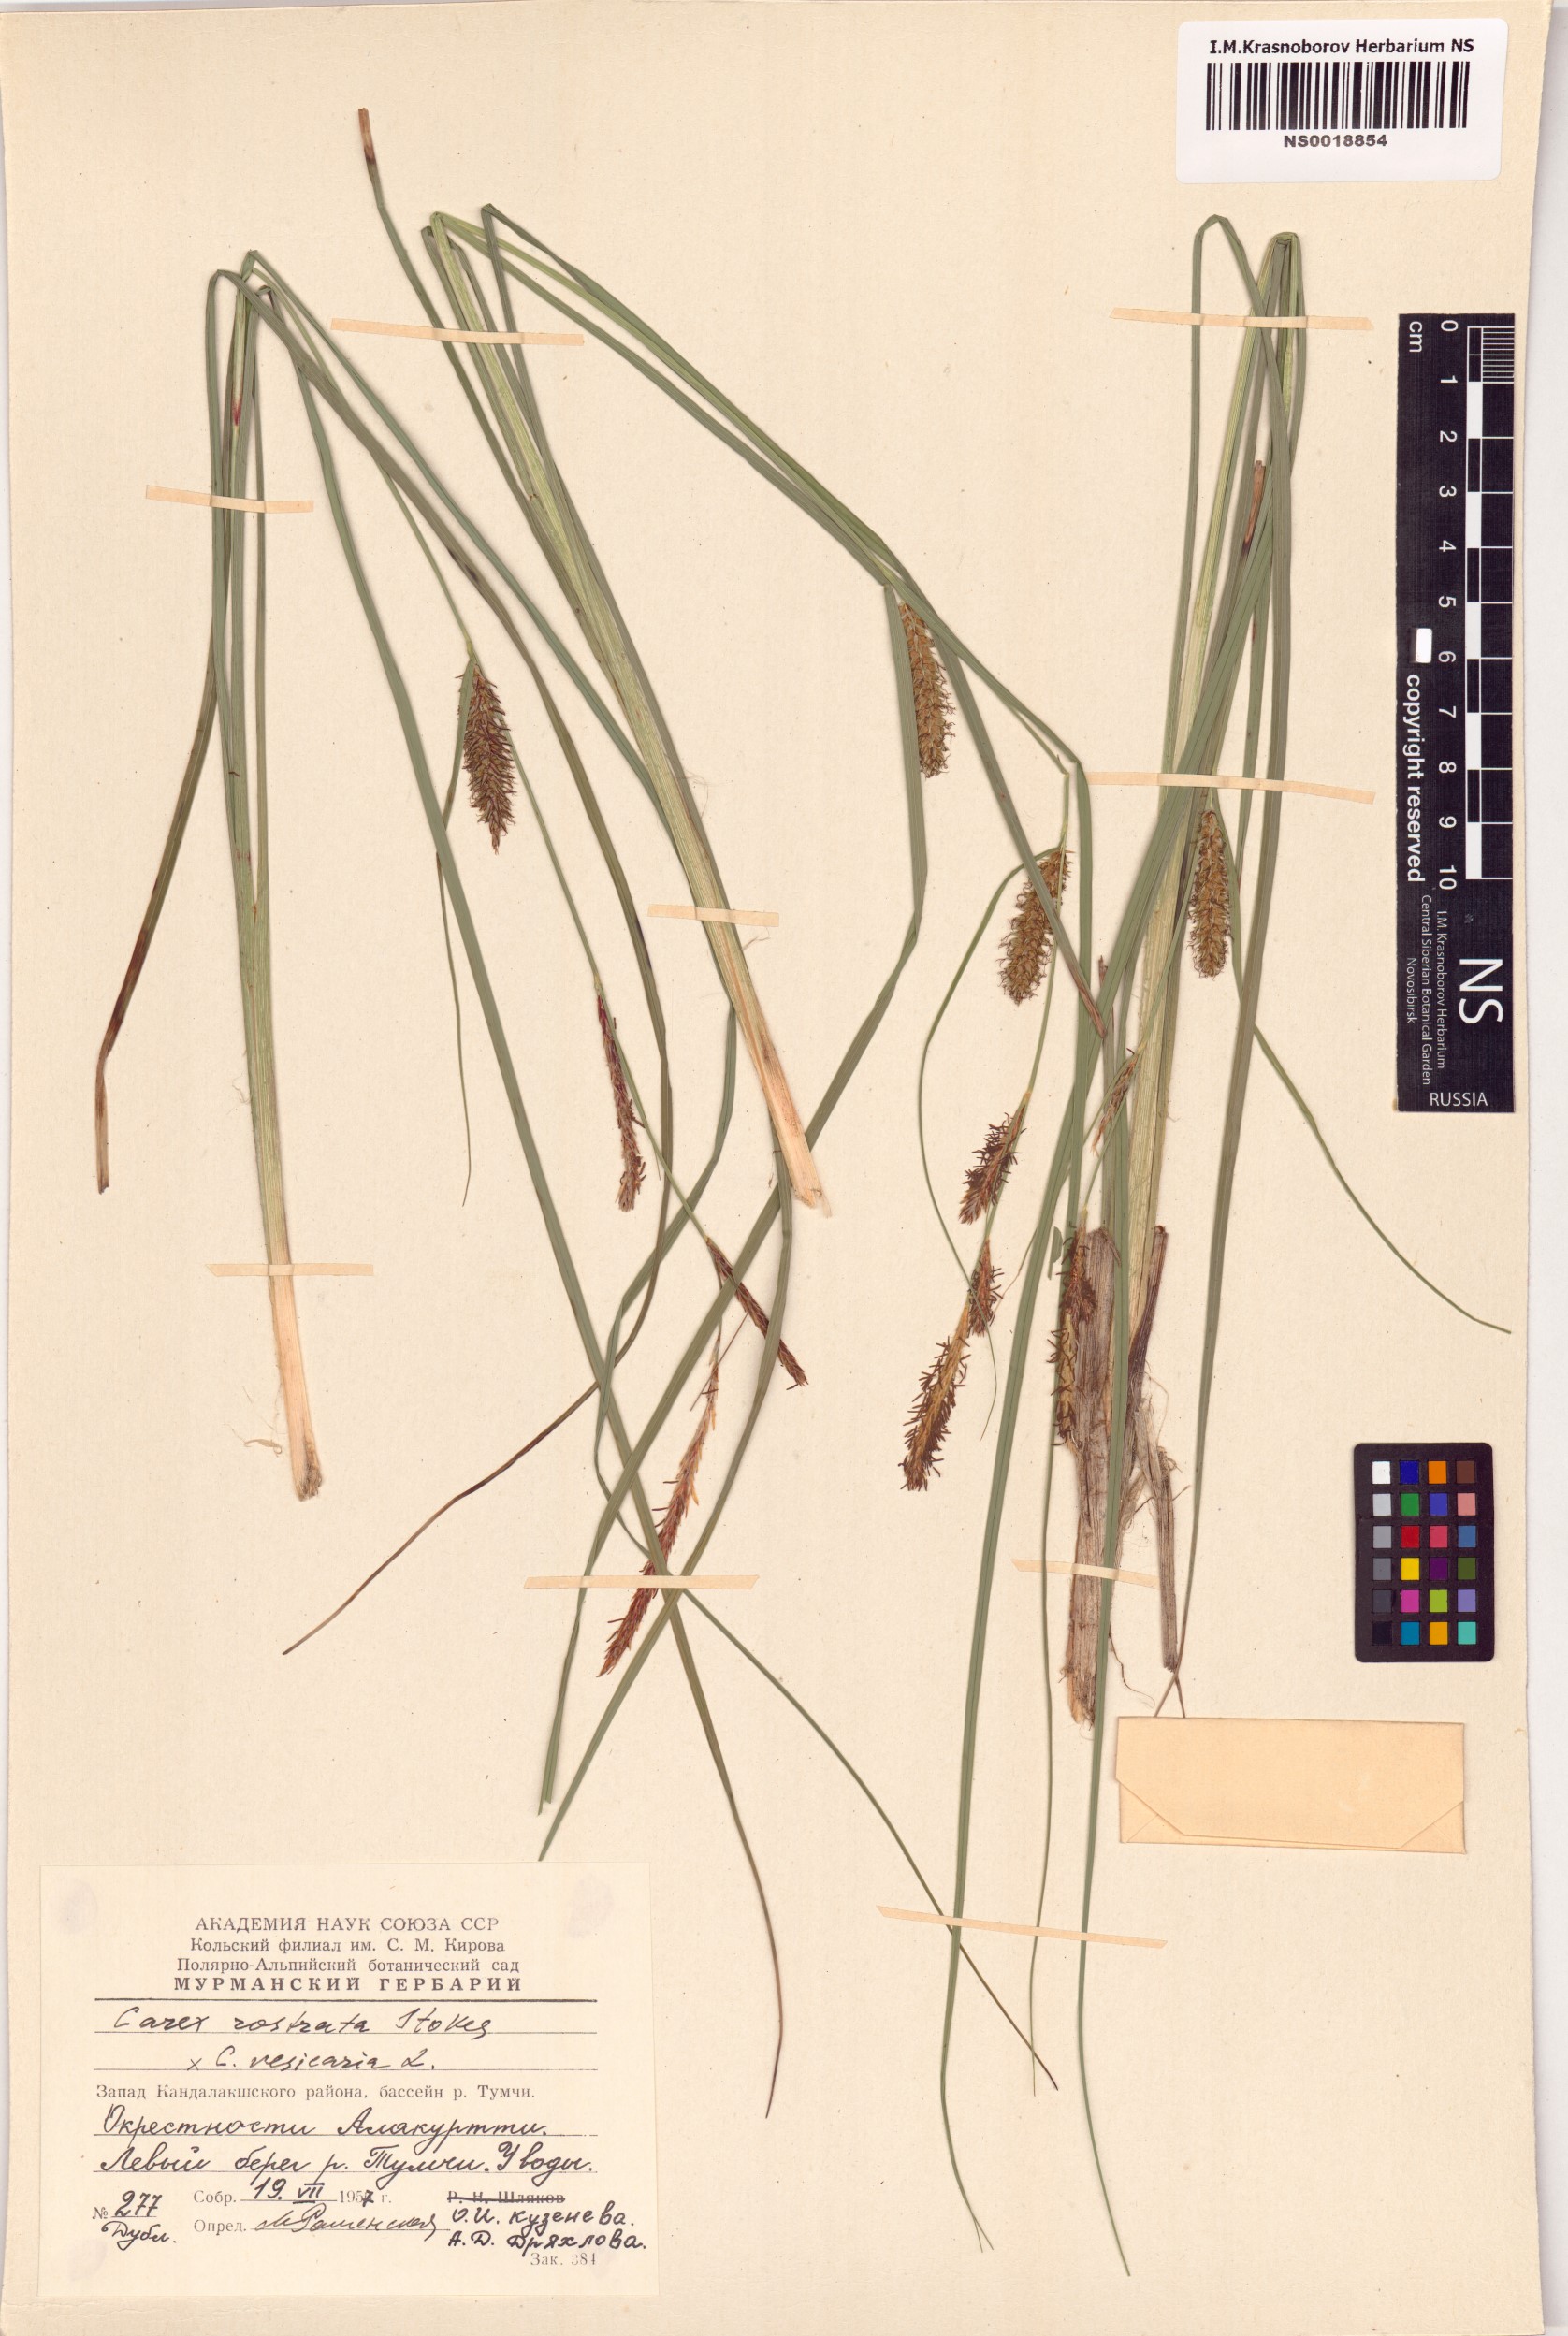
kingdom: Plantae
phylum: Tracheophyta
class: Liliopsida
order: Poales
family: Cyperaceae
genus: Carex
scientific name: Carex rostrata
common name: Bottle sedge
